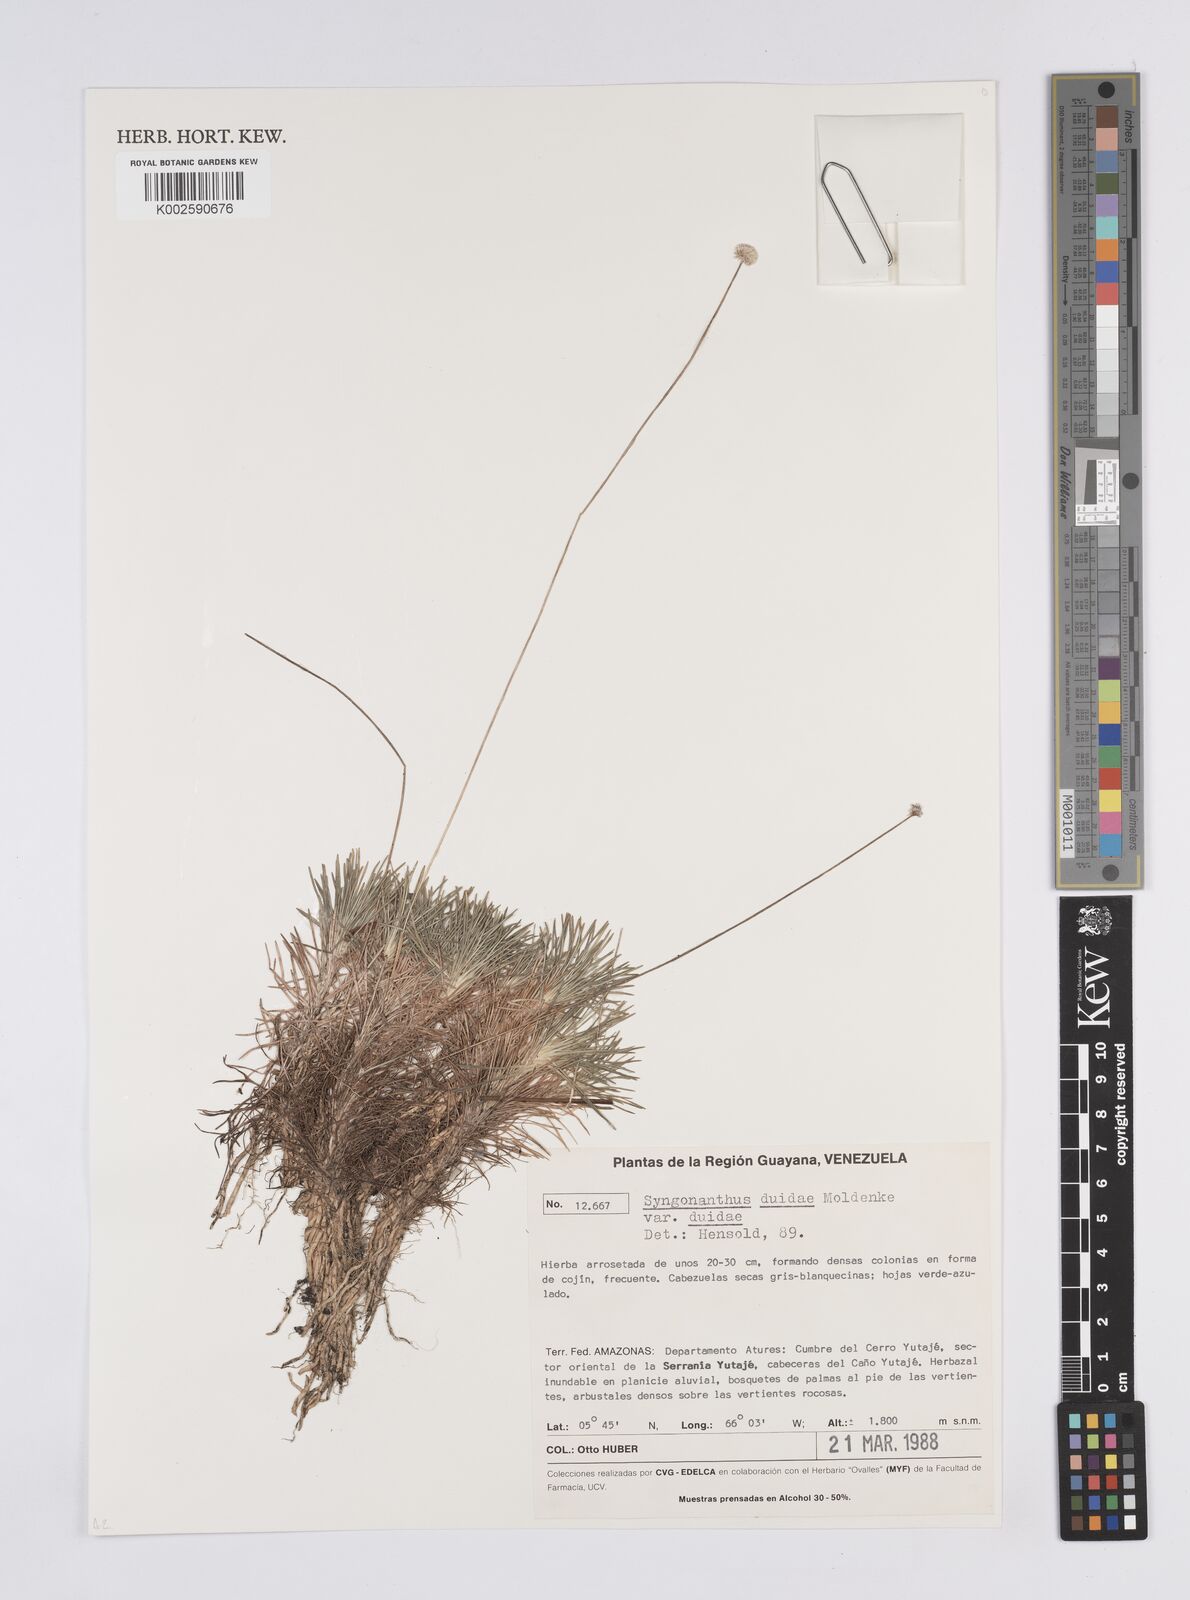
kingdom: Plantae
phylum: Tracheophyta
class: Liliopsida
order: Poales
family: Eriocaulaceae
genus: Syngonanthus
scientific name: Syngonanthus duidae
